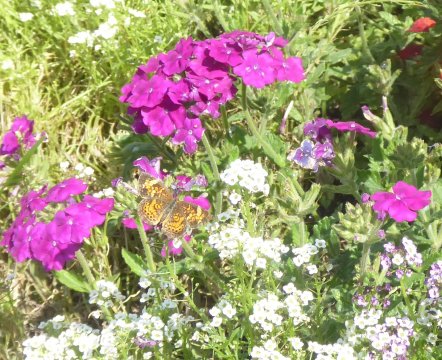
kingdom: Animalia
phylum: Arthropoda
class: Insecta
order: Lepidoptera
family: Nymphalidae
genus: Phyciodes
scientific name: Phyciodes tharos
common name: Pearl Crescent
